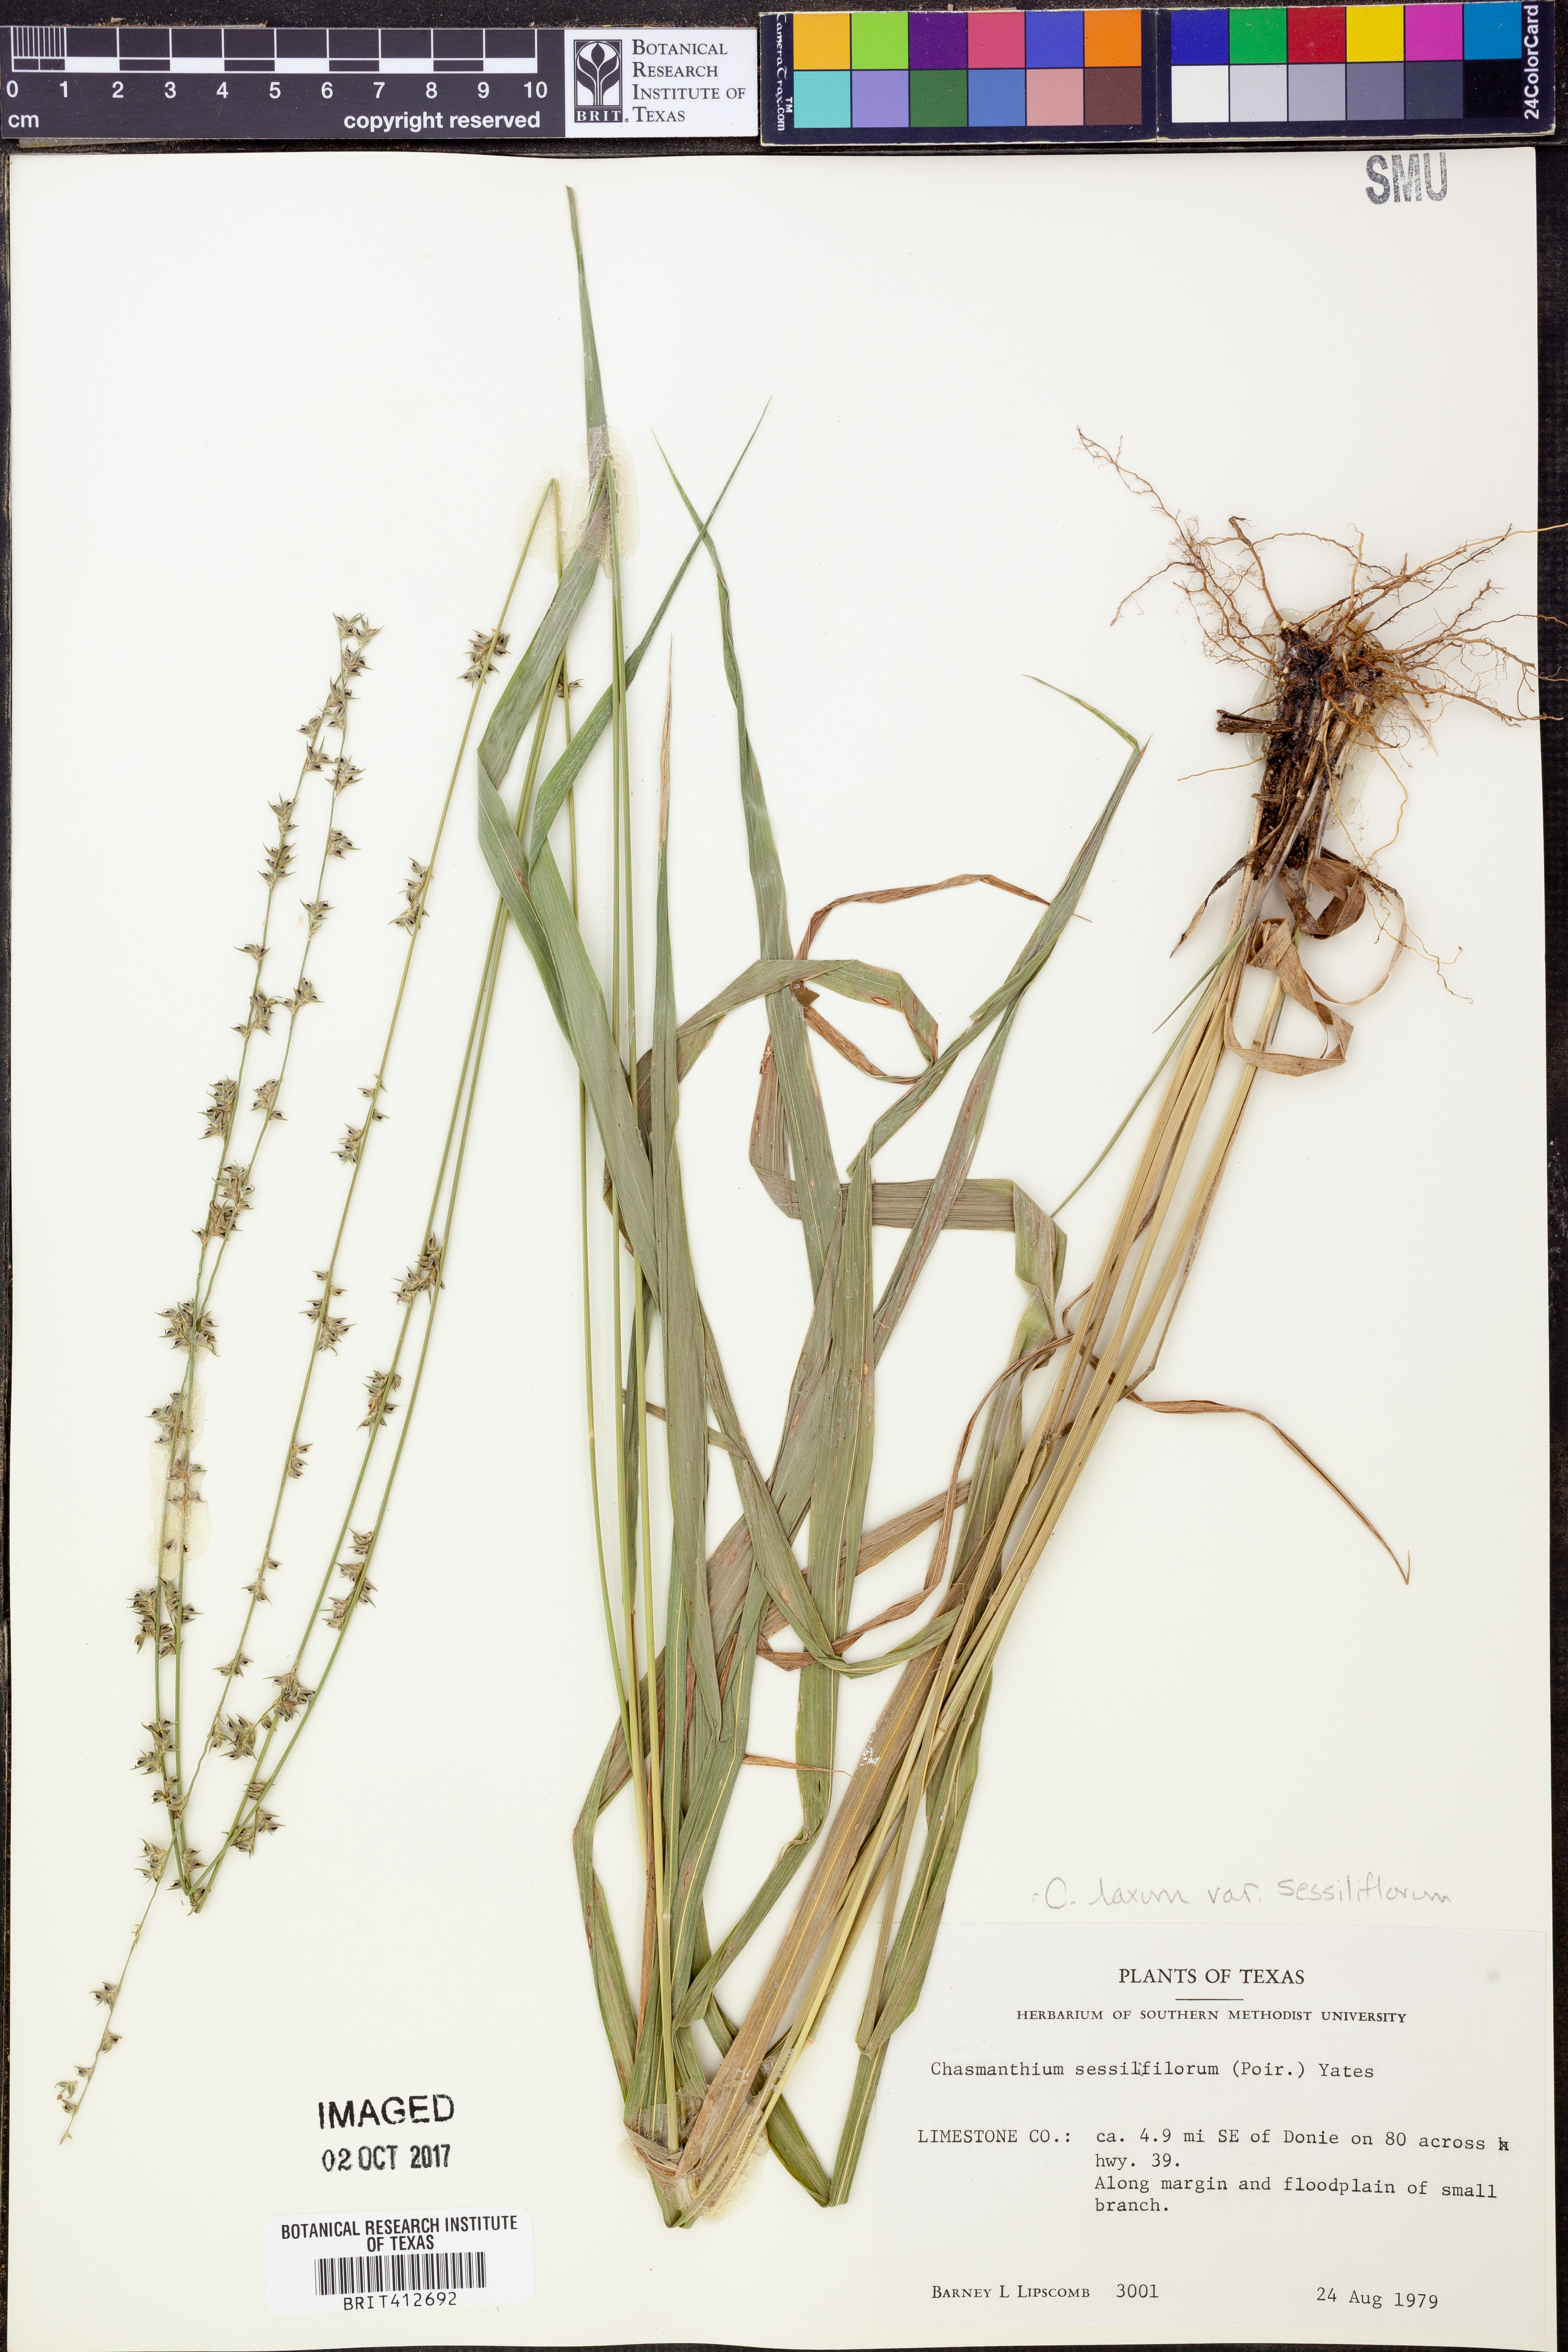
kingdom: Plantae
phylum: Tracheophyta
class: Liliopsida
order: Poales
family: Poaceae
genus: Chasmanthium
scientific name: Chasmanthium laxum
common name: Slender chasmanthium
